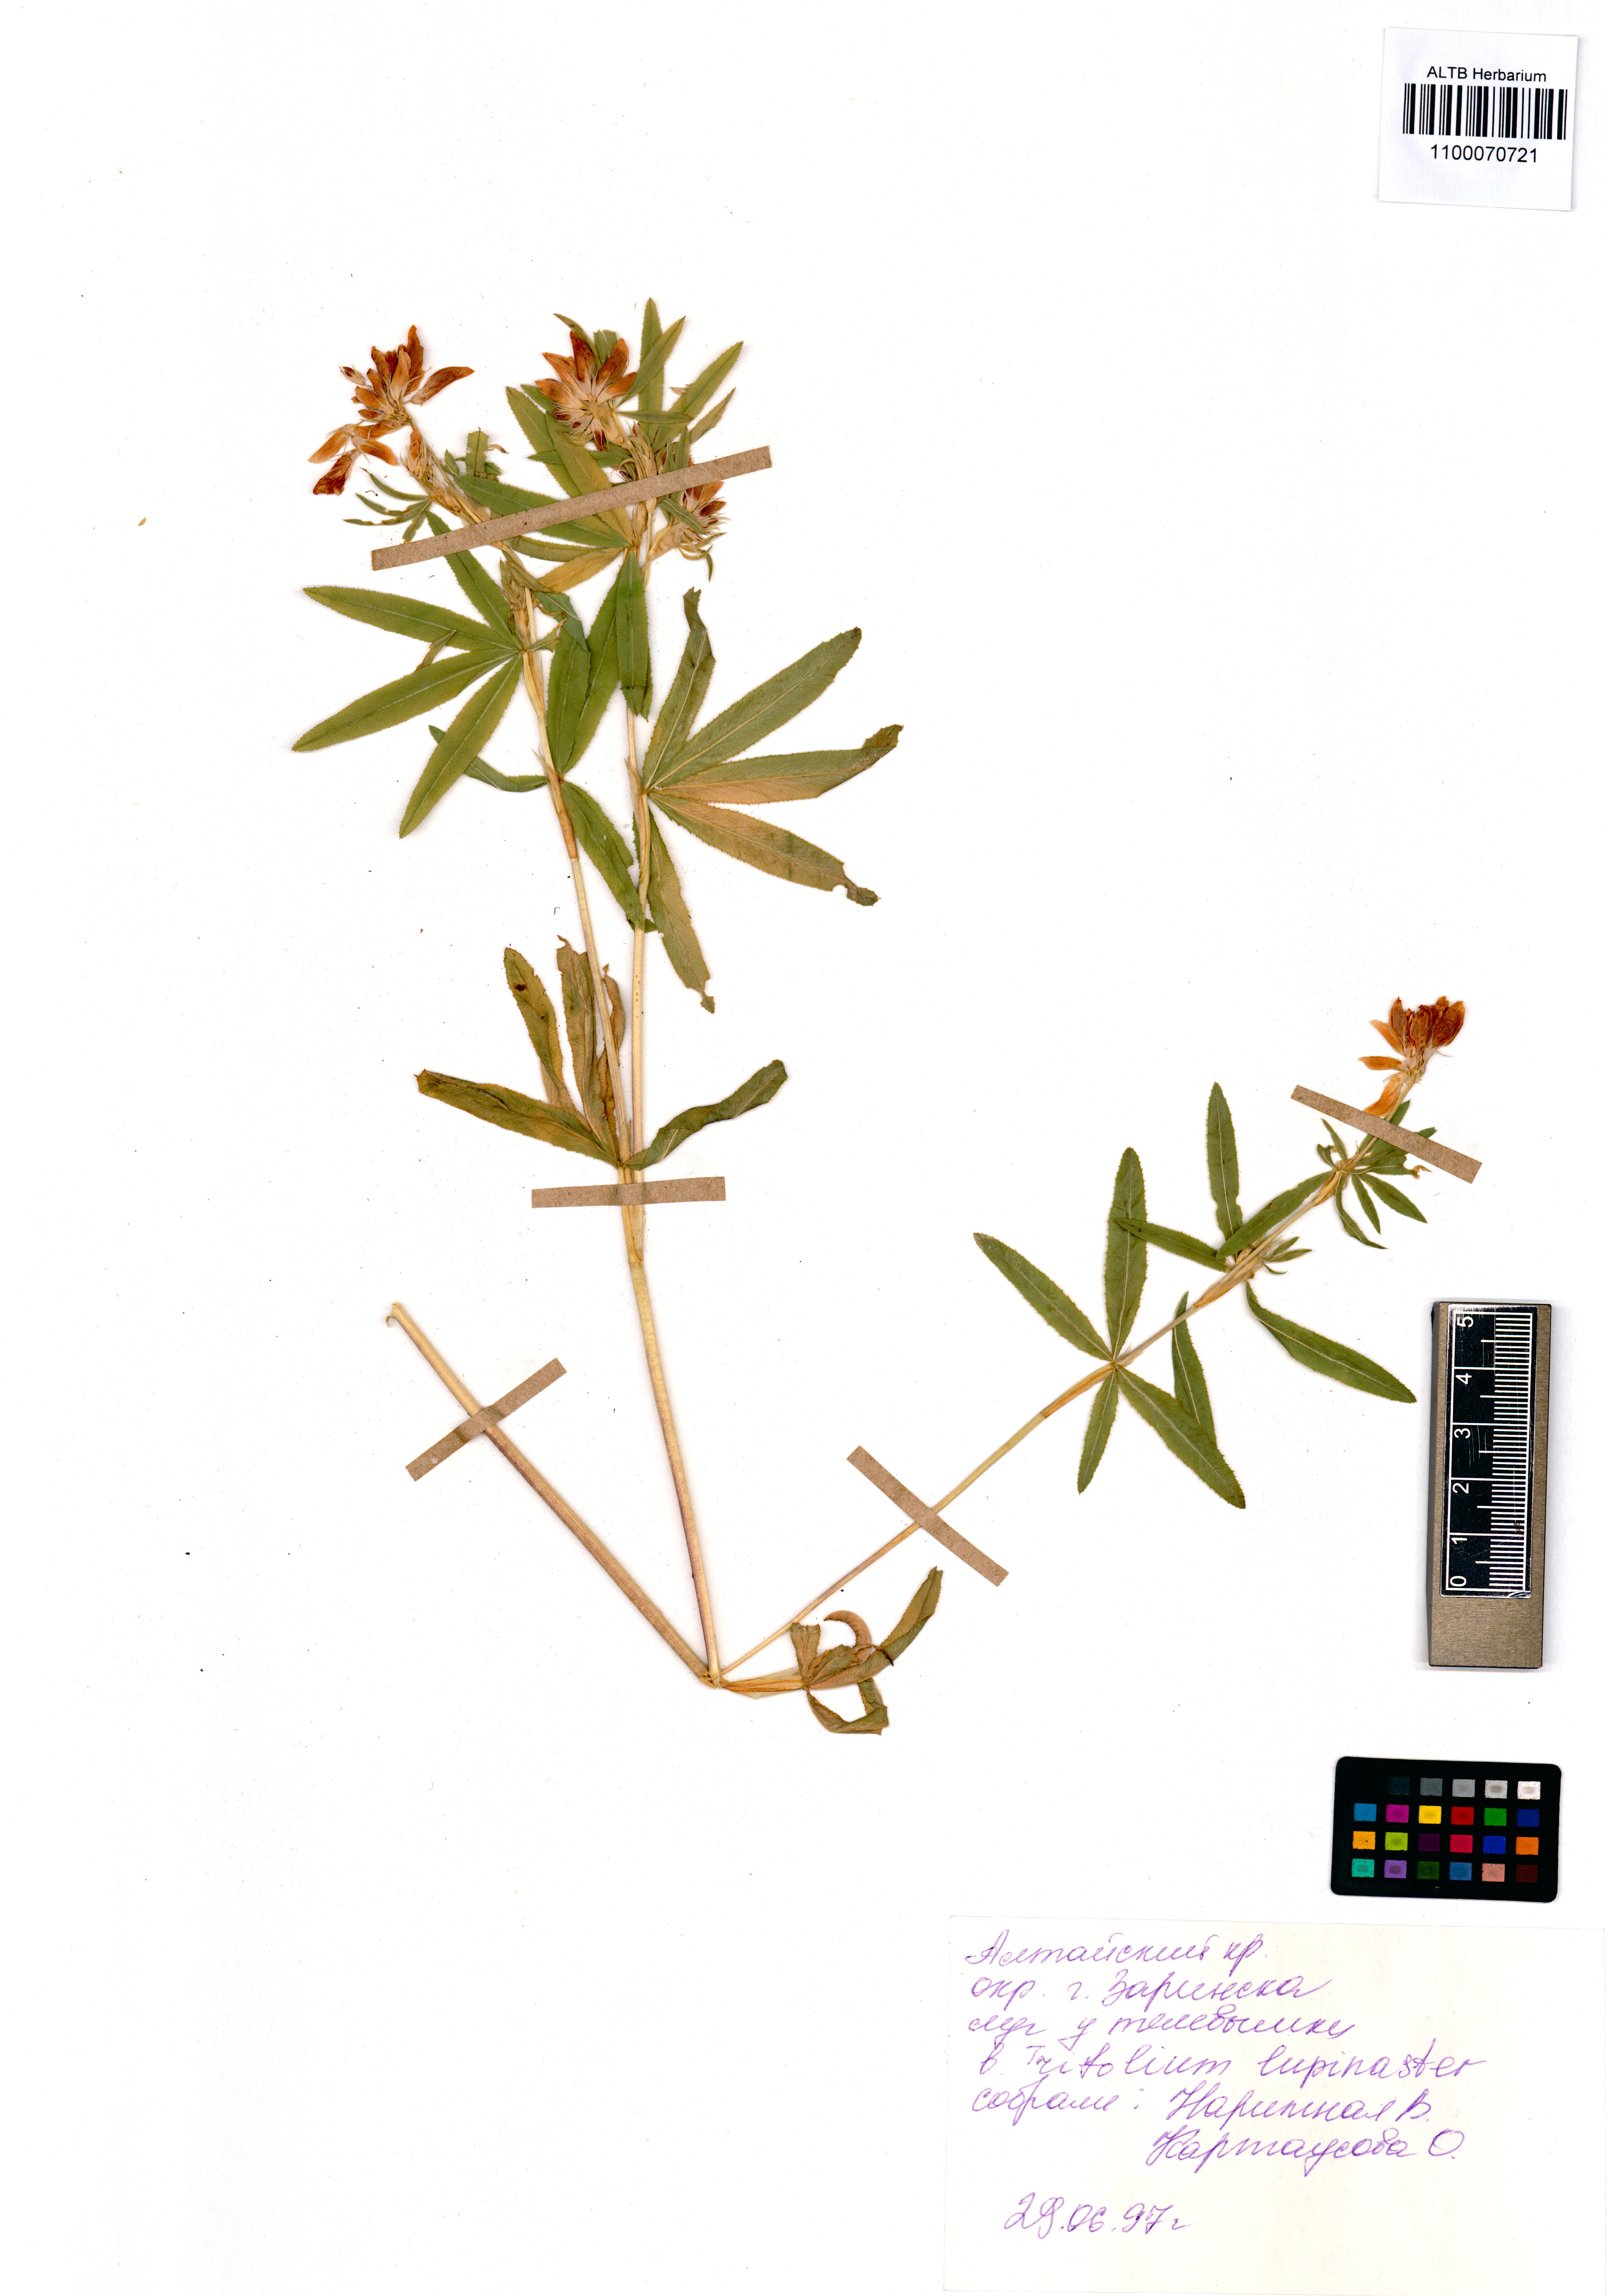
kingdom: Plantae
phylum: Tracheophyta
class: Magnoliopsida
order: Fabales
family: Fabaceae
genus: Trifolium
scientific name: Trifolium lupinaster
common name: Lupine clover
